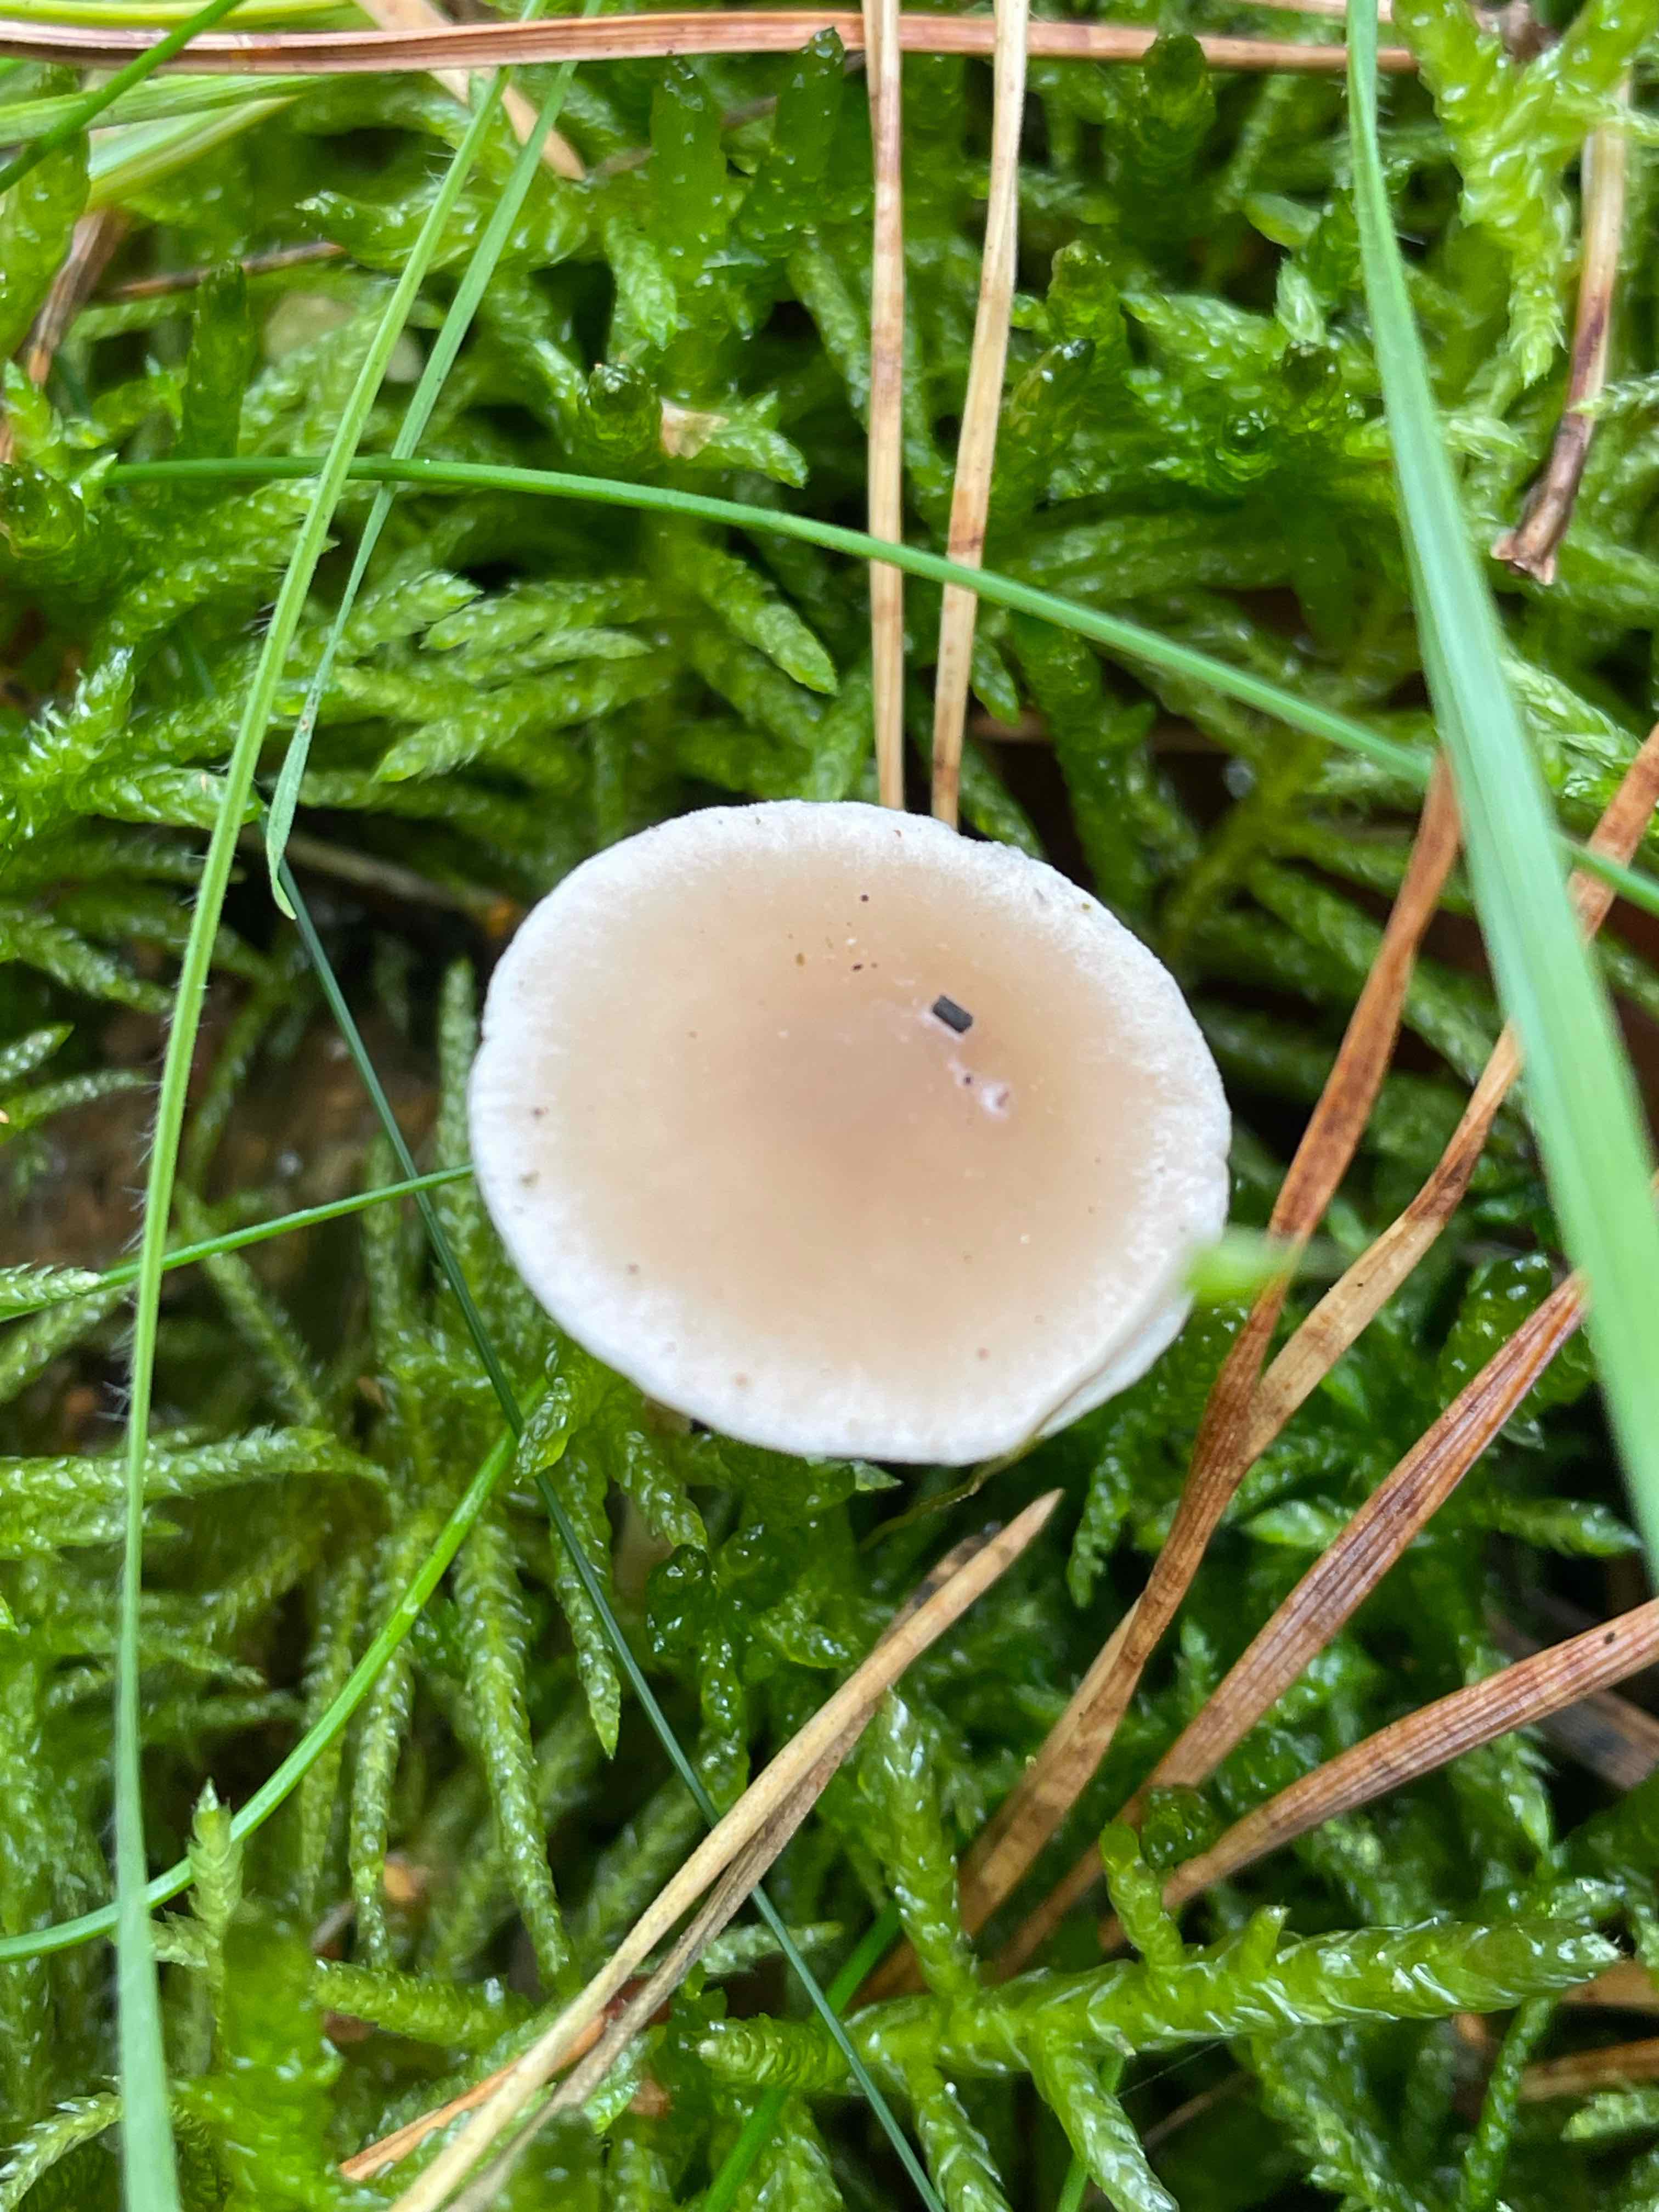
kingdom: Fungi
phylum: Basidiomycota
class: Agaricomycetes
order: Agaricales
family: Marasmiaceae
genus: Baeospora
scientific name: Baeospora myosura
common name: koglebruskhat
